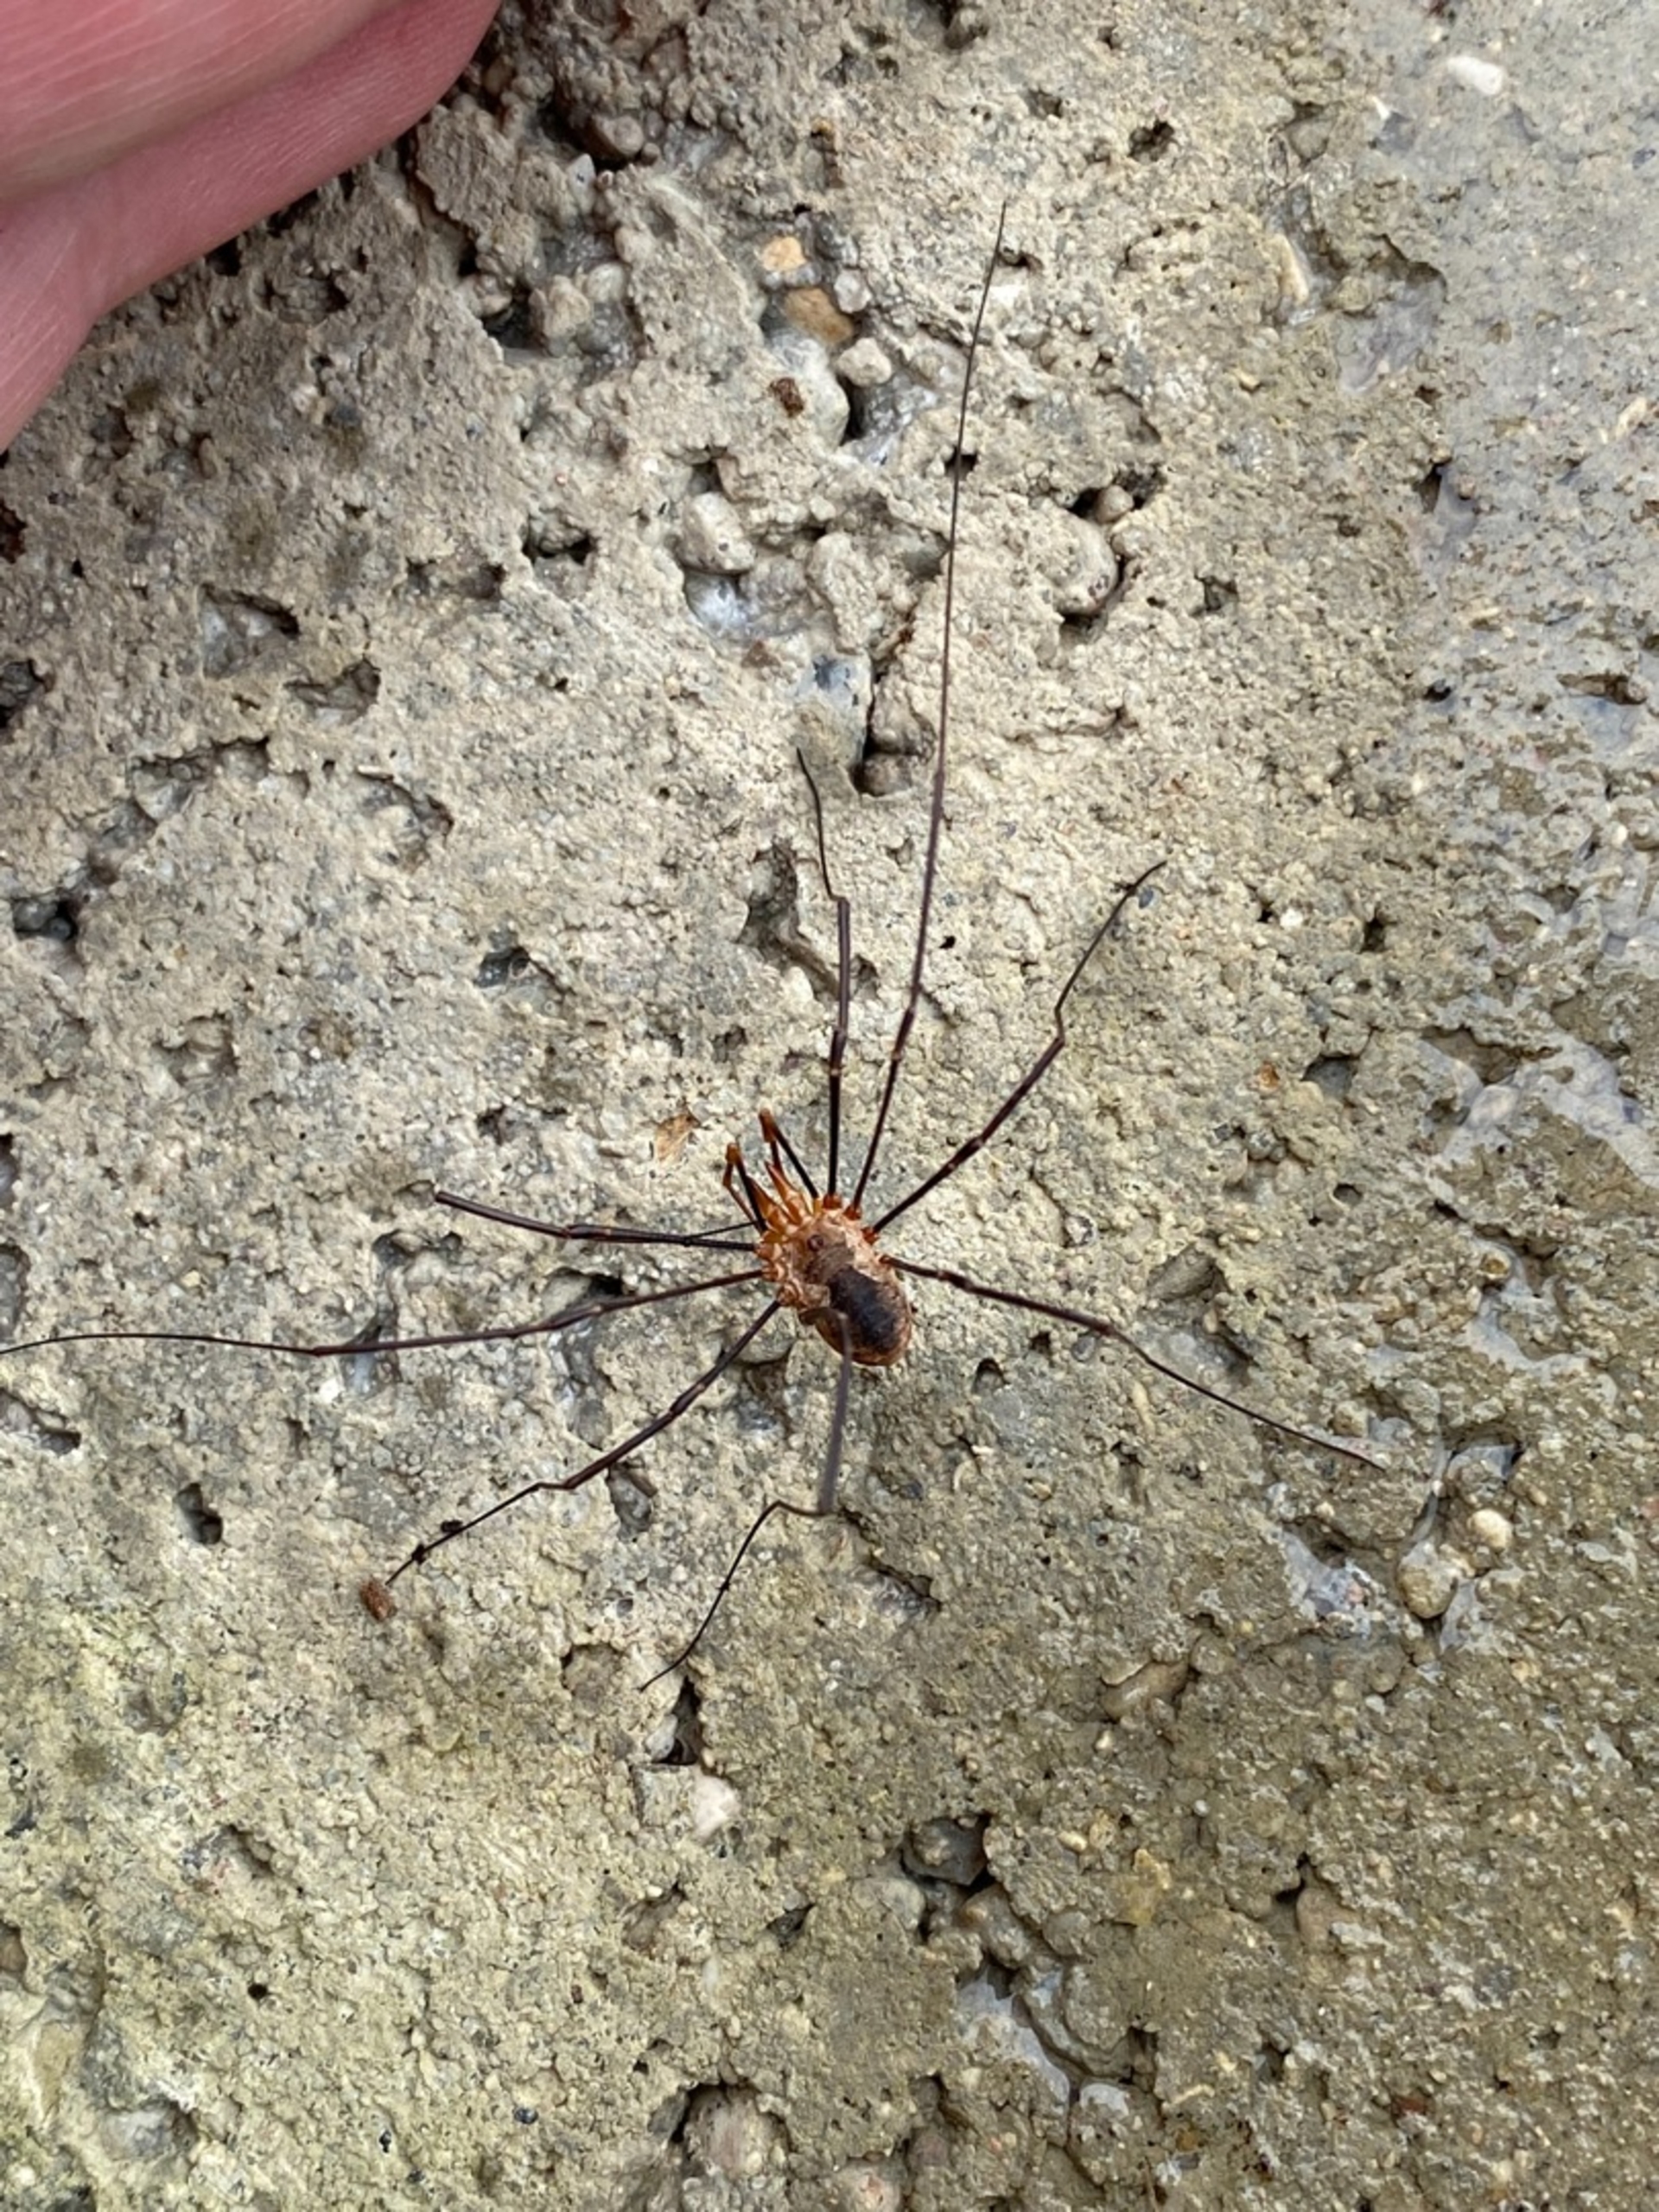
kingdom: Animalia
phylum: Arthropoda
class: Arachnida
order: Opiliones
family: Phalangiidae
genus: Phalangium
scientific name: Phalangium opilio
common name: Hornmejer
